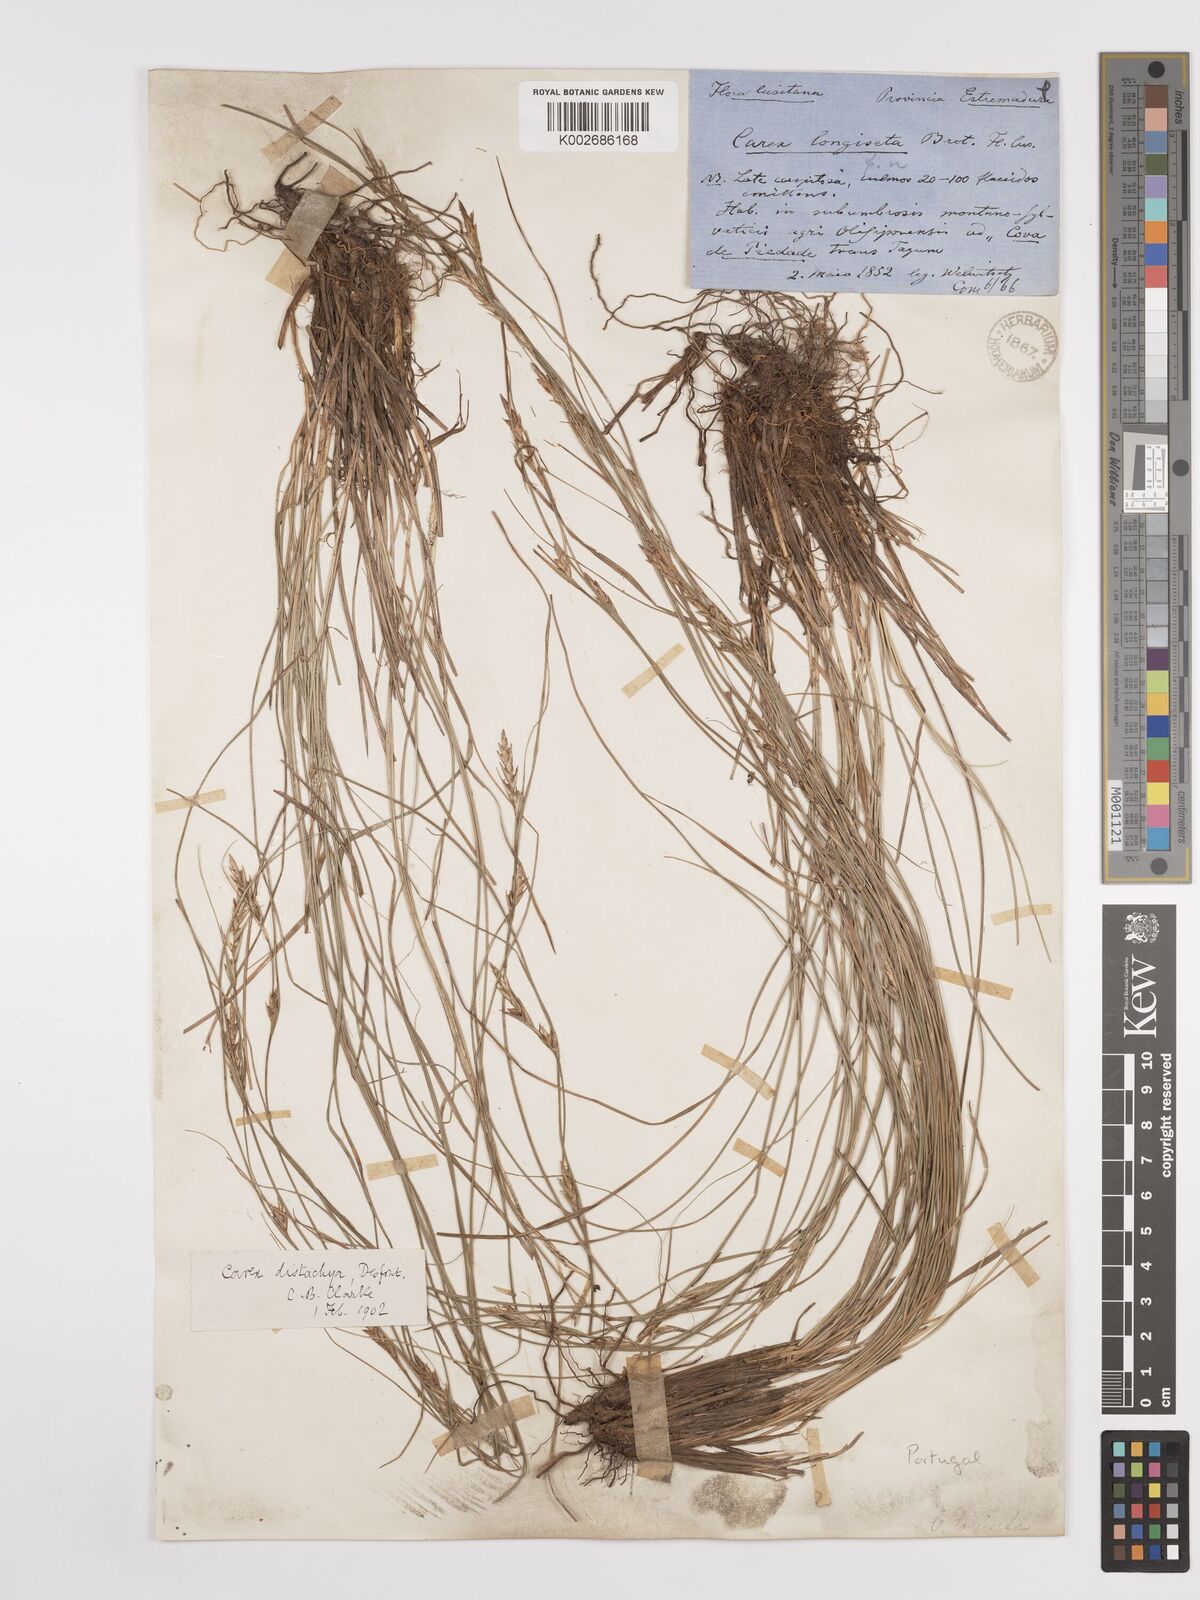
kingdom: Plantae
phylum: Tracheophyta
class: Liliopsida
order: Poales
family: Cyperaceae
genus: Carex
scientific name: Carex distachya
